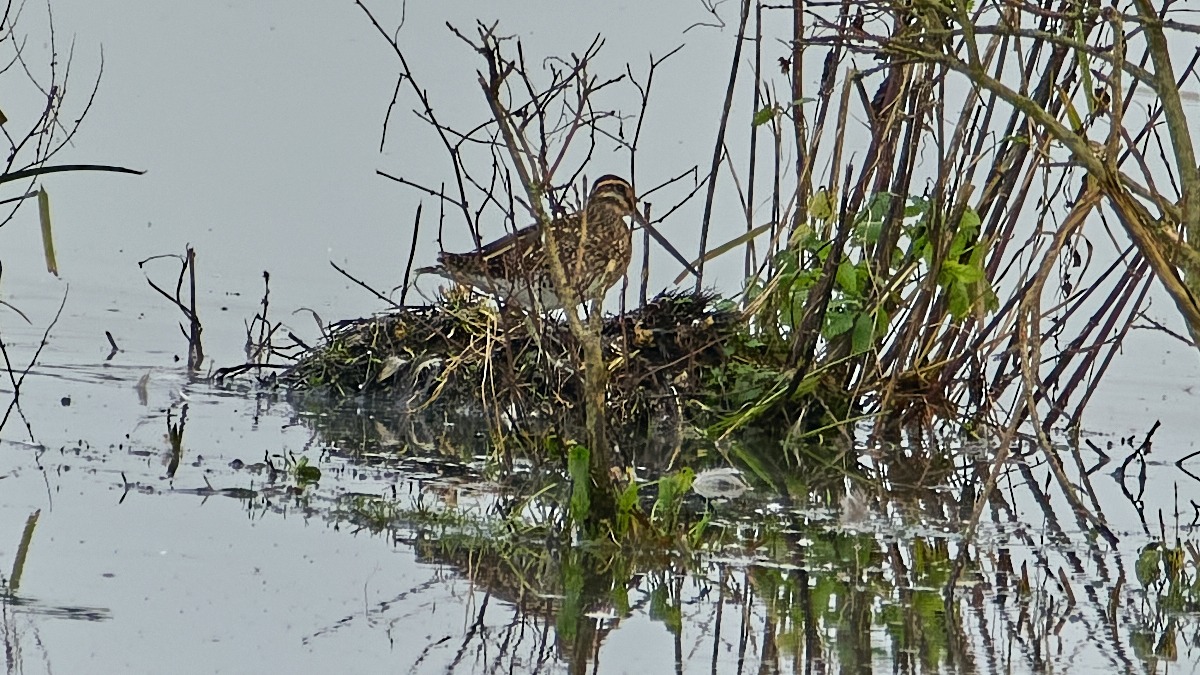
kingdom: Animalia
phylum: Chordata
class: Aves
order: Charadriiformes
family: Scolopacidae
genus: Gallinago
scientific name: Gallinago gallinago
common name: Dobbeltbekkasin
